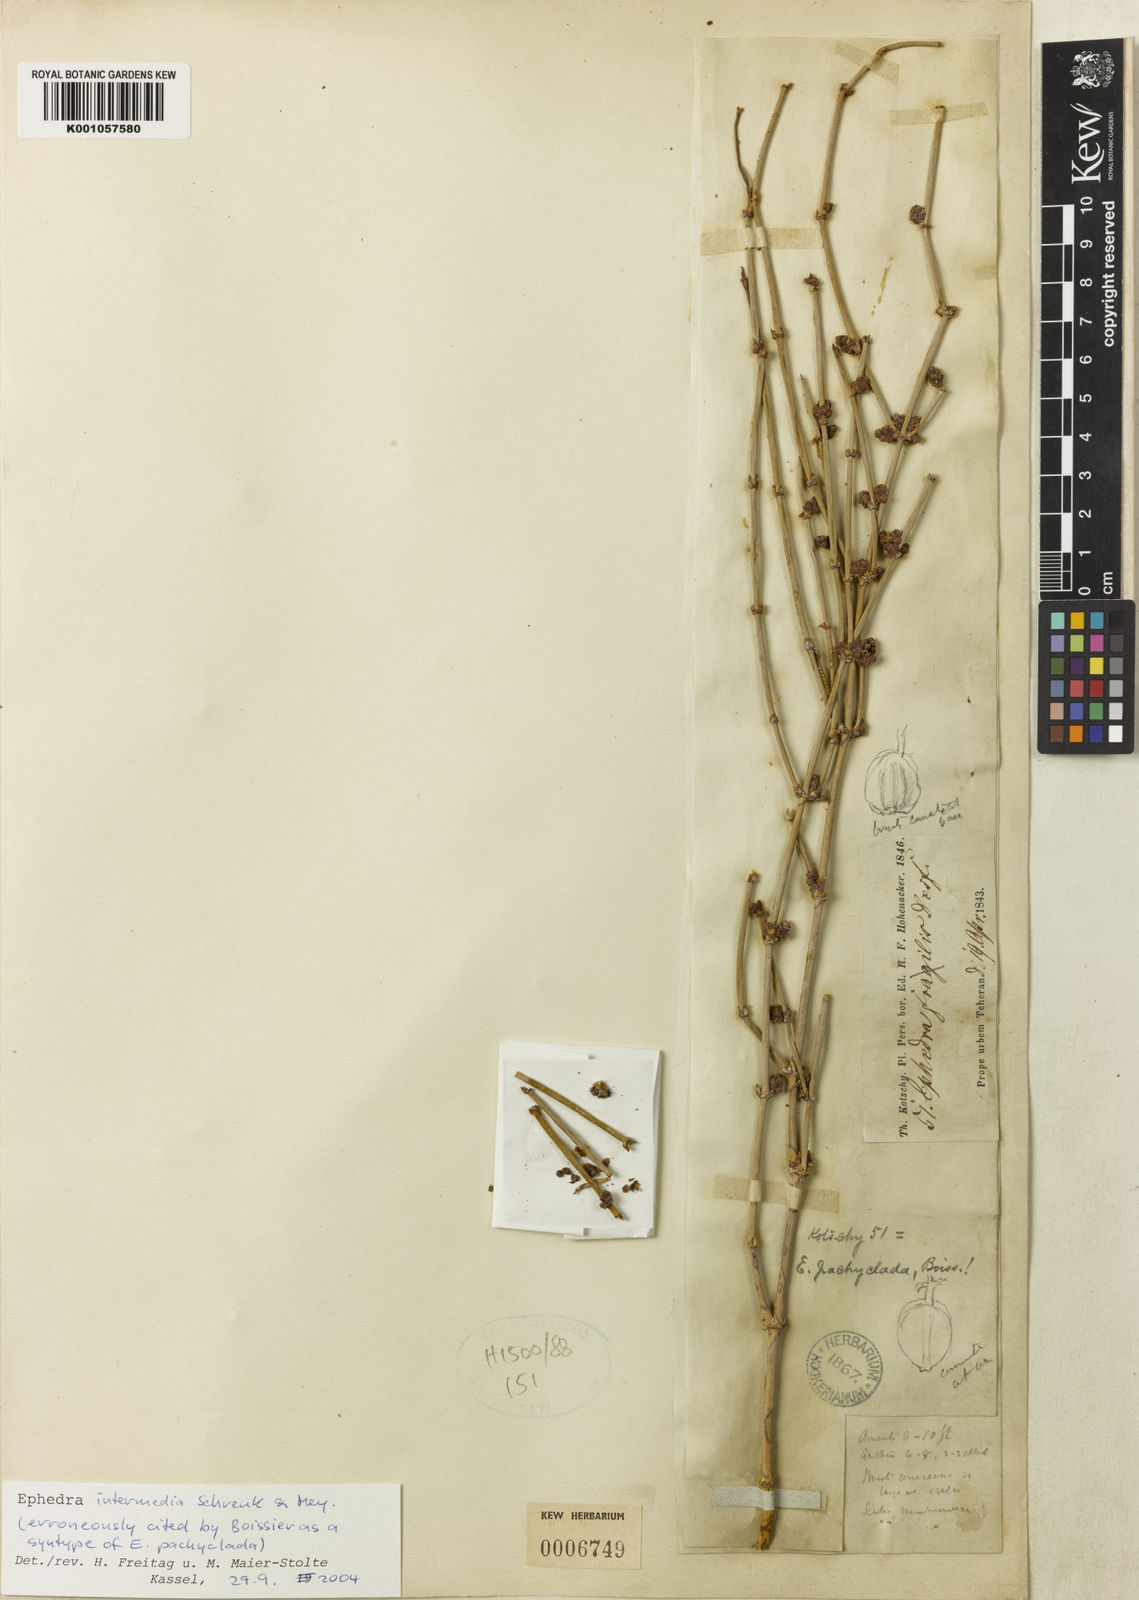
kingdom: Plantae
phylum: Tracheophyta
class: Gnetopsida
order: Ephedrales
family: Ephedraceae
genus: Ephedra
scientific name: Ephedra intermedia
